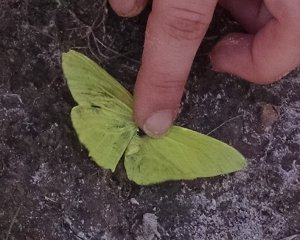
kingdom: Animalia
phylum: Arthropoda
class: Insecta
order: Lepidoptera
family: Pieridae
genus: Phoebis
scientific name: Phoebis sennae
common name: Cloudless Sulphur
